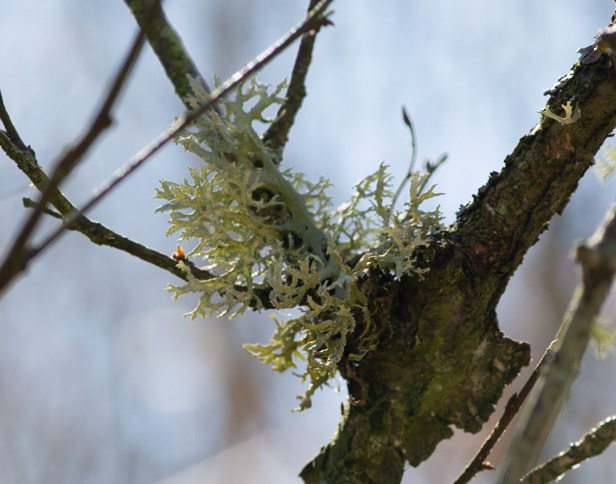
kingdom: Fungi
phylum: Ascomycota
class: Lecanoromycetes
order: Lecanorales
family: Parmeliaceae
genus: Evernia
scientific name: Evernia prunastri
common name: Almindelig slåenlav
